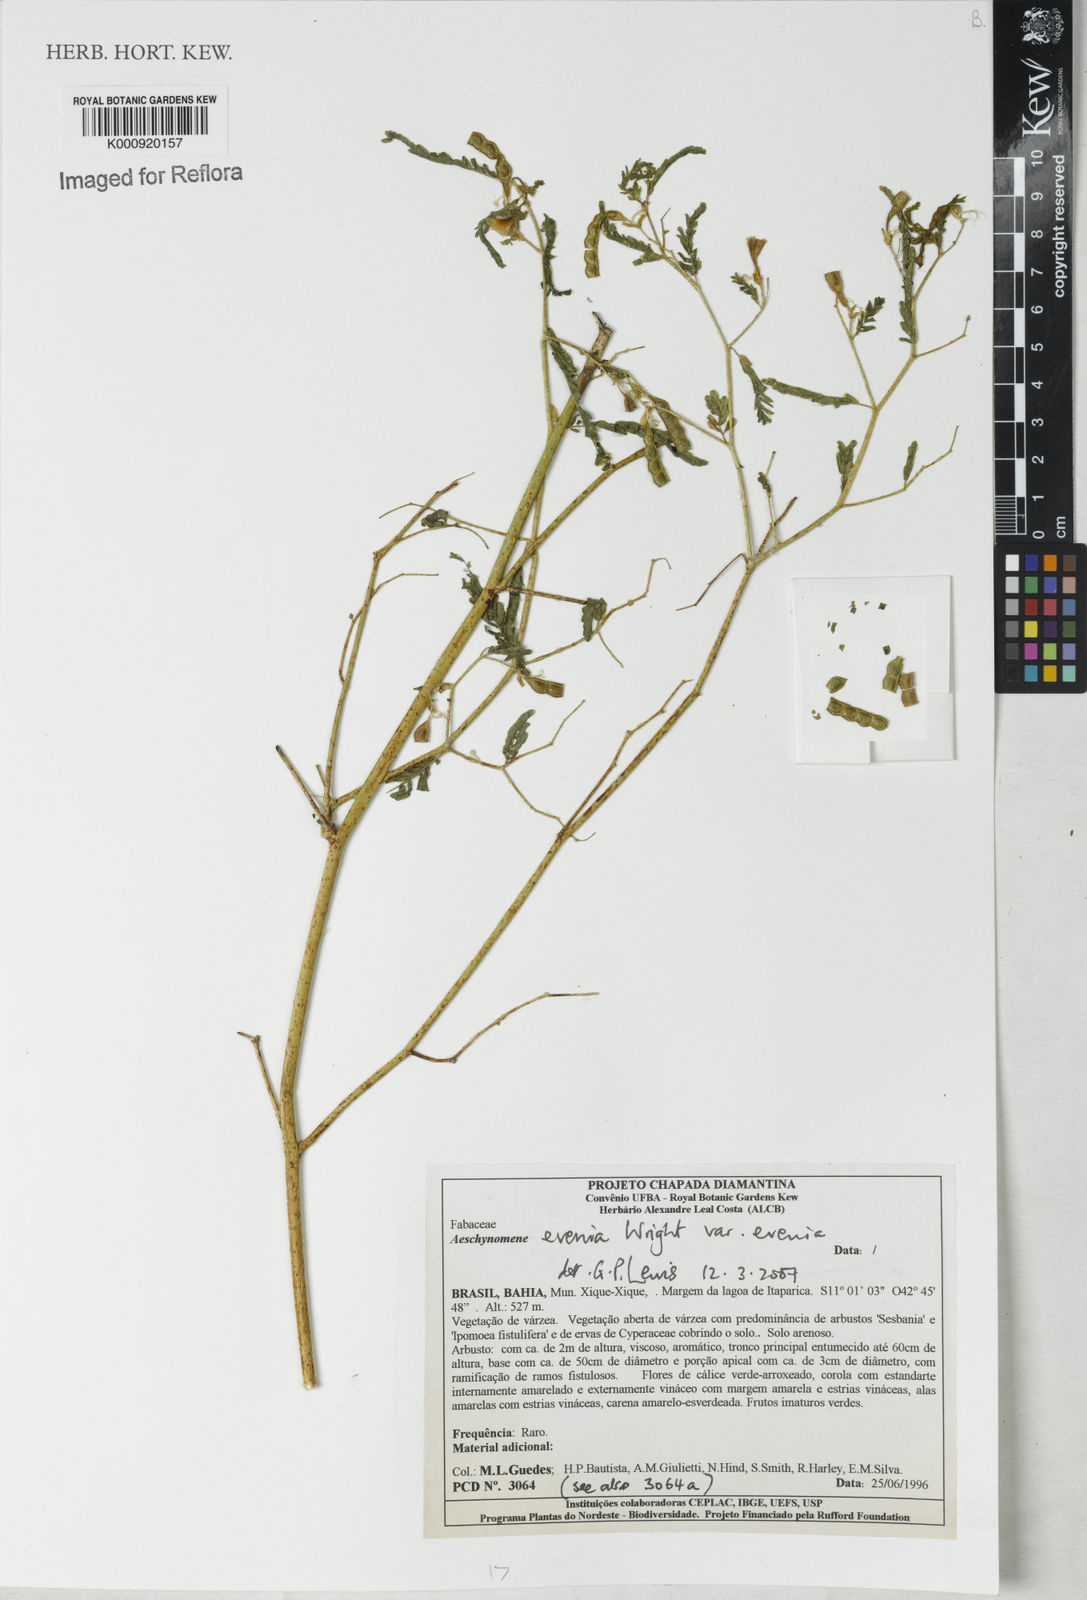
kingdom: Plantae
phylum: Tracheophyta
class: Magnoliopsida
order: Fabales
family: Fabaceae
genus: Aeschynomene
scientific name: Aeschynomene evenia
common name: Shrubby jointvetch
